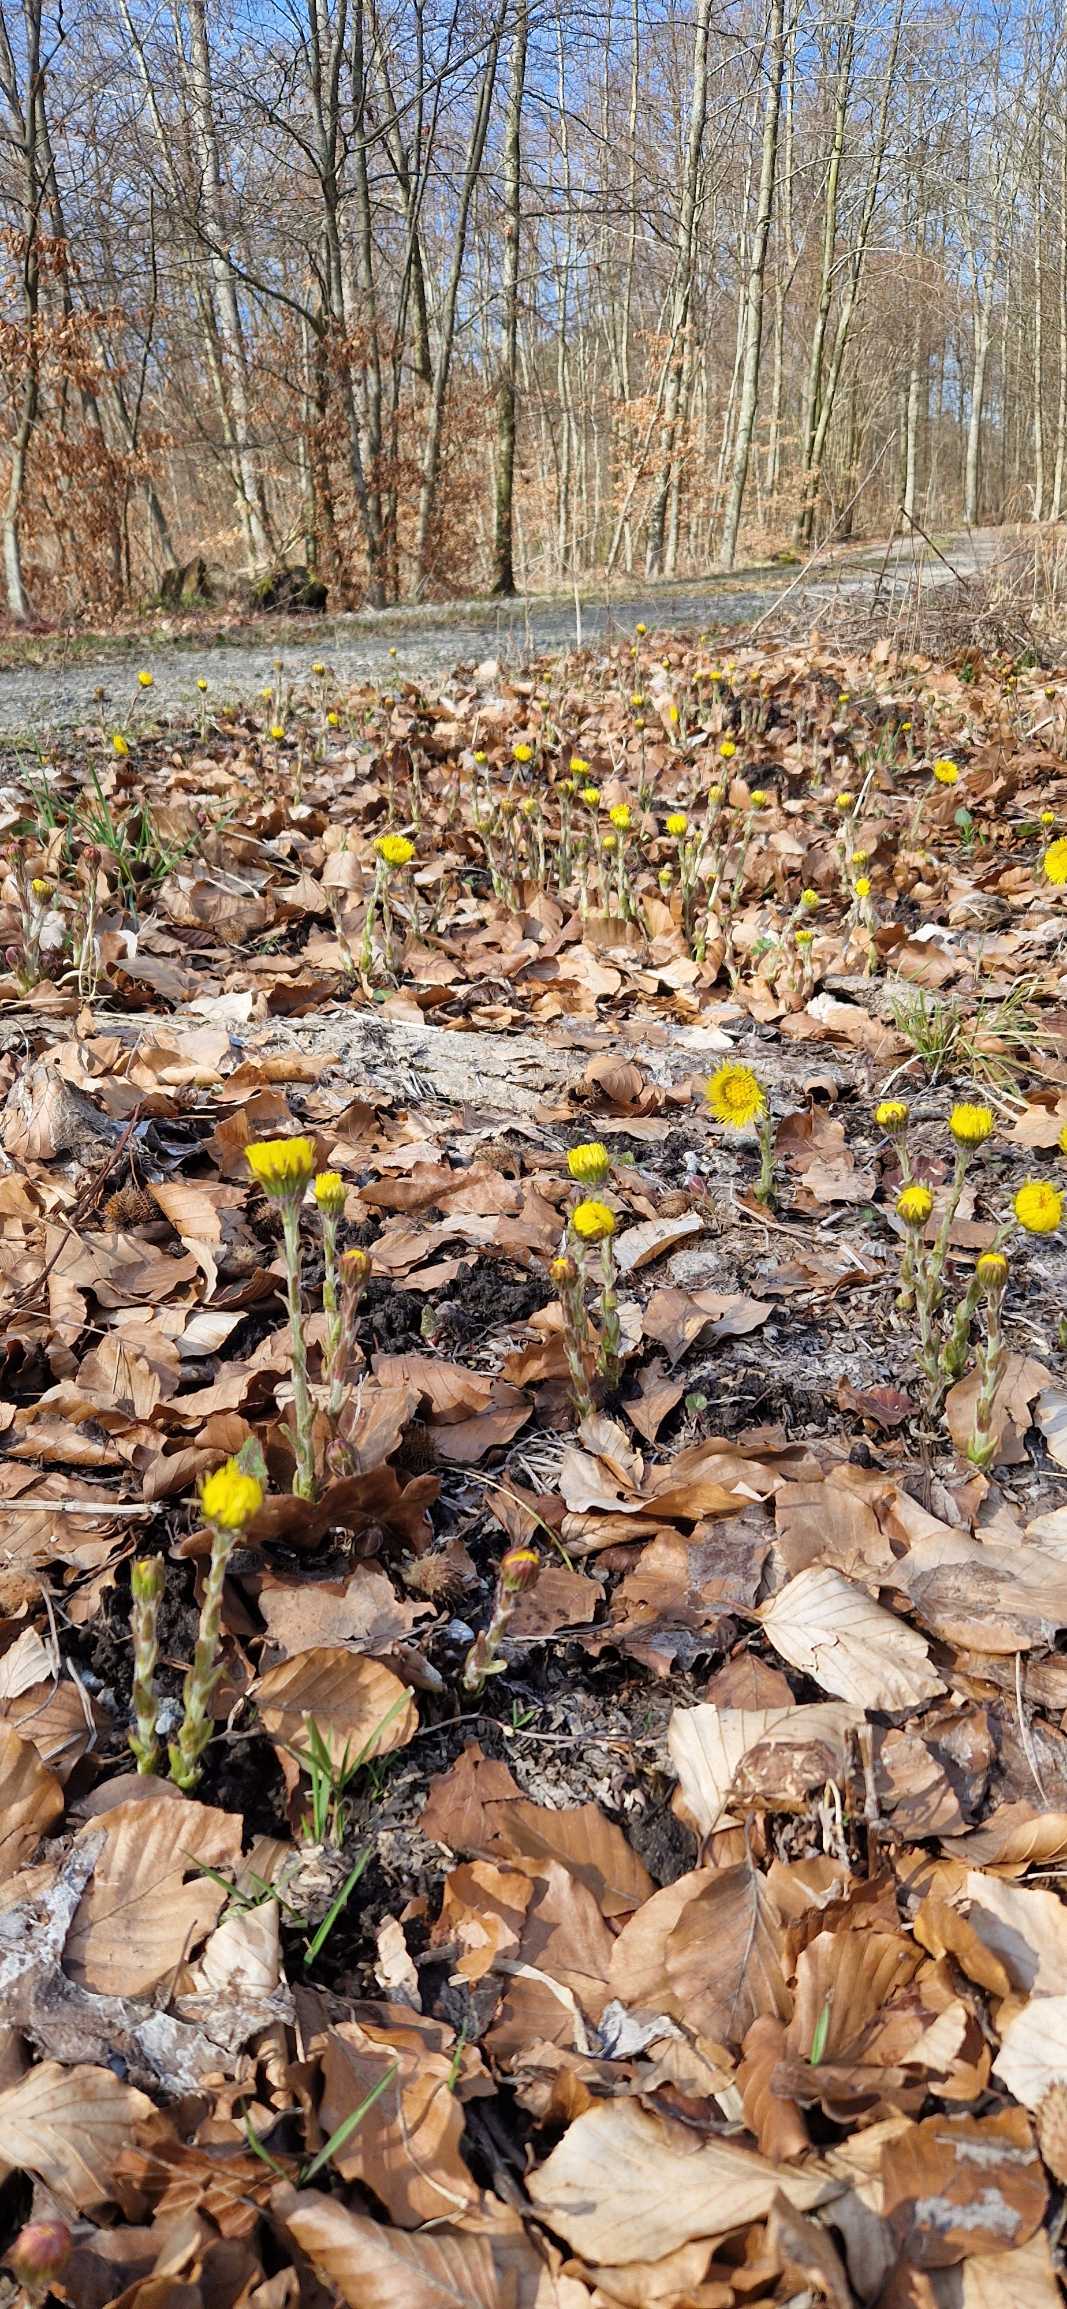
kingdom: Plantae
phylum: Tracheophyta
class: Magnoliopsida
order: Asterales
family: Asteraceae
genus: Tussilago
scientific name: Tussilago farfara
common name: Følfod
